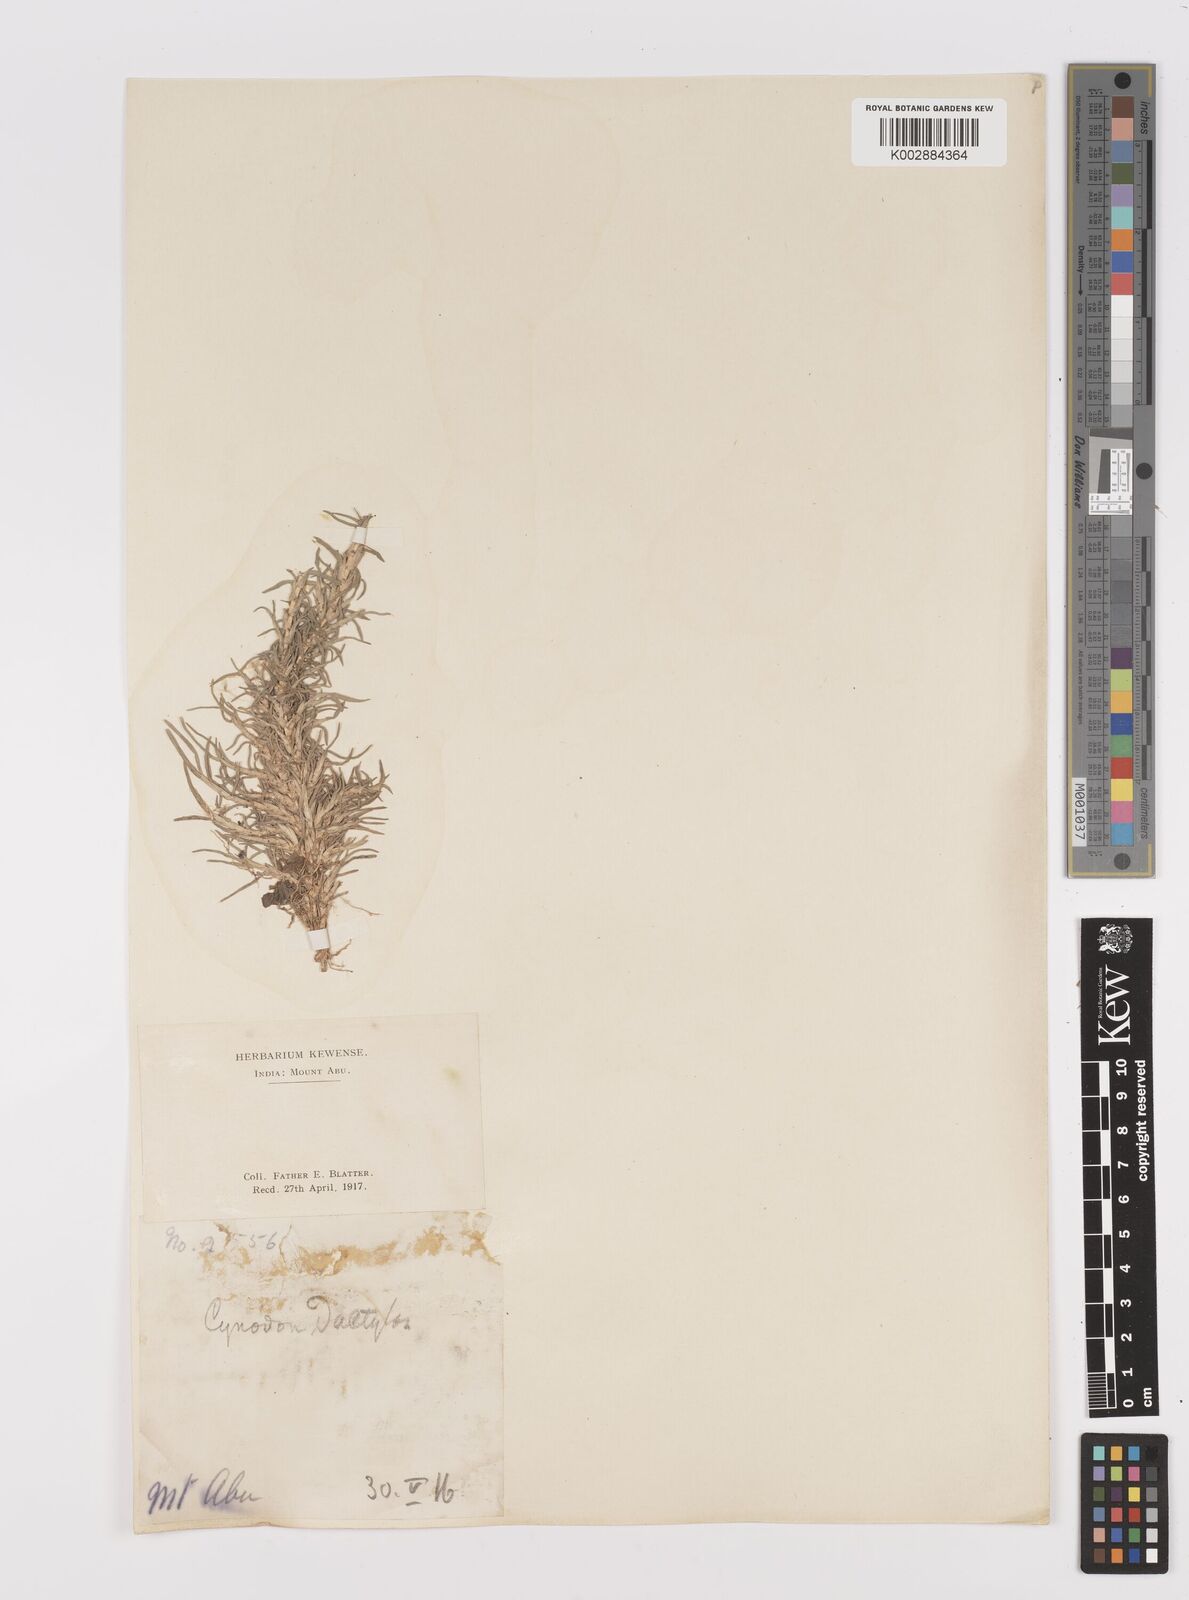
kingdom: Plantae
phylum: Tracheophyta
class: Liliopsida
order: Poales
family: Poaceae
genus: Cynodon
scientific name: Cynodon dactylon
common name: Bermuda grass
